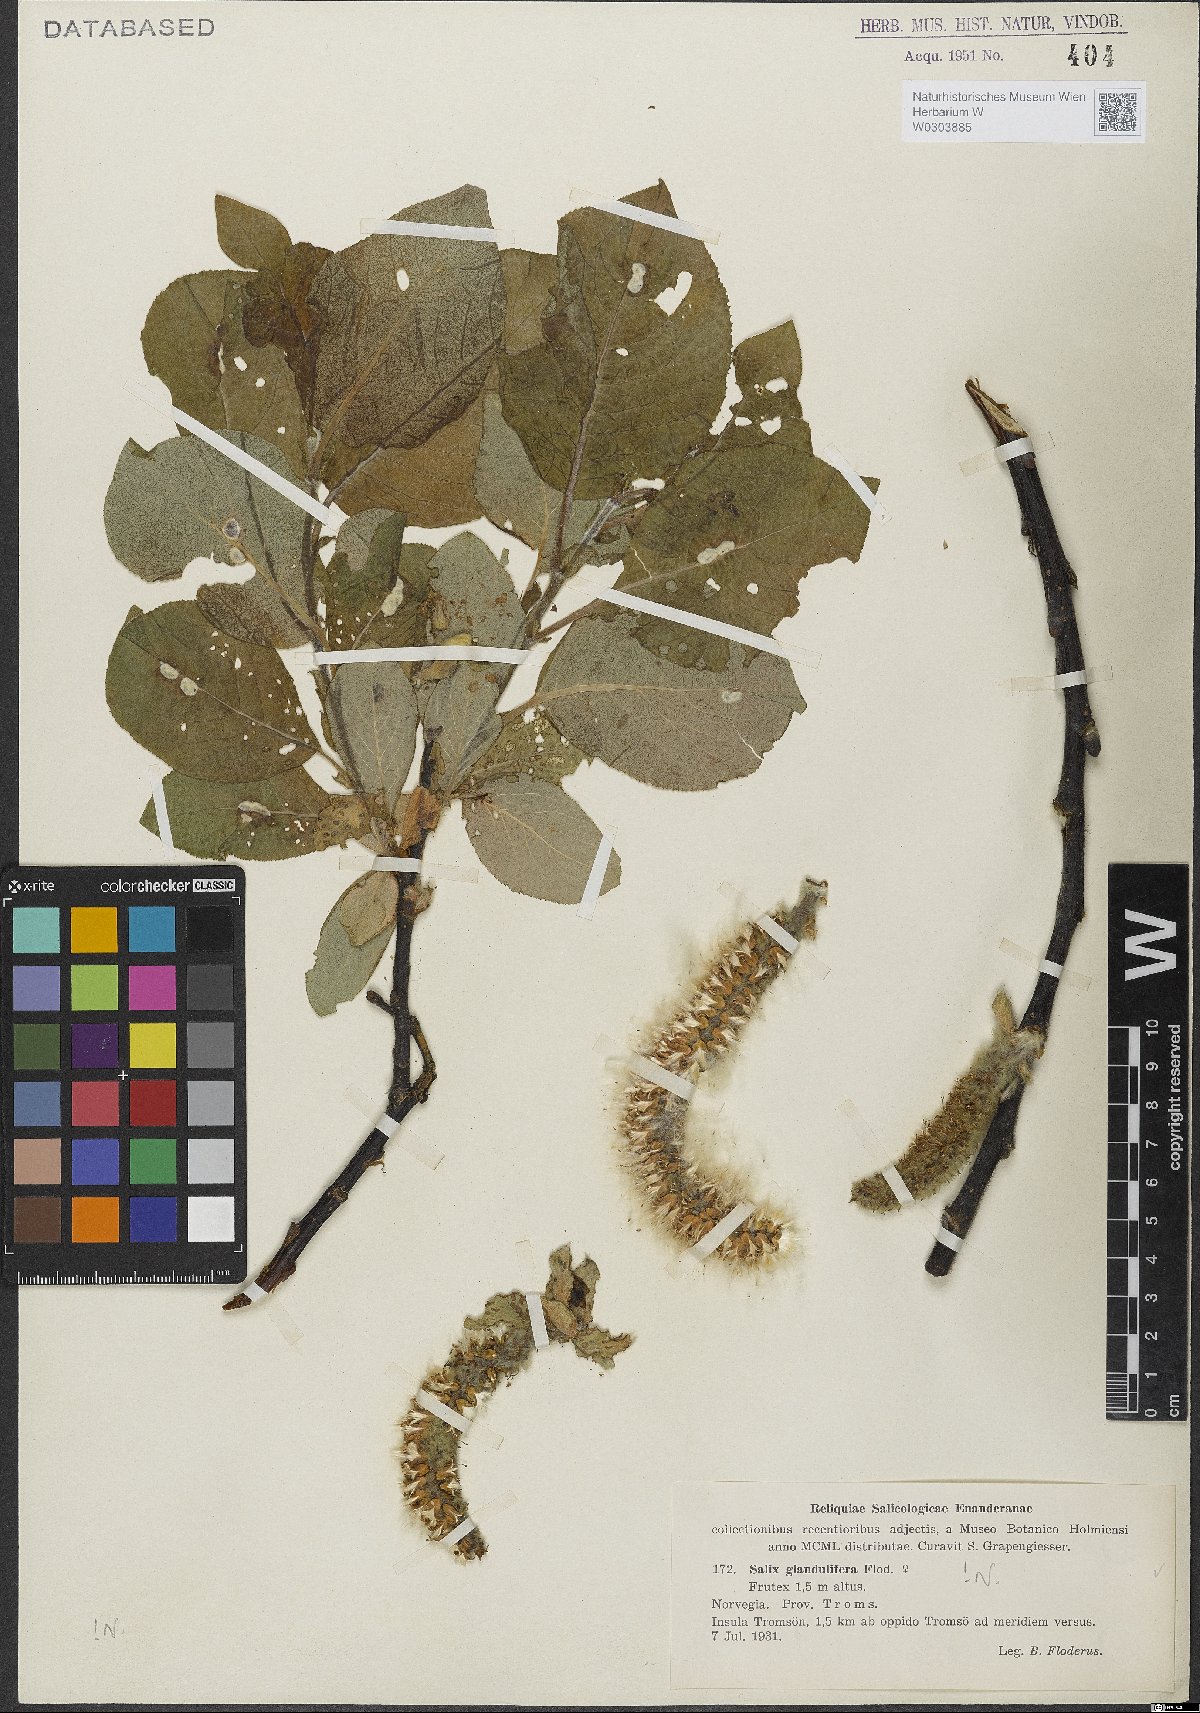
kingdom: Plantae
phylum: Tracheophyta
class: Magnoliopsida
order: Malpighiales
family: Salicaceae
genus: Salix
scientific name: Salix lanata
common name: Woolly willow
